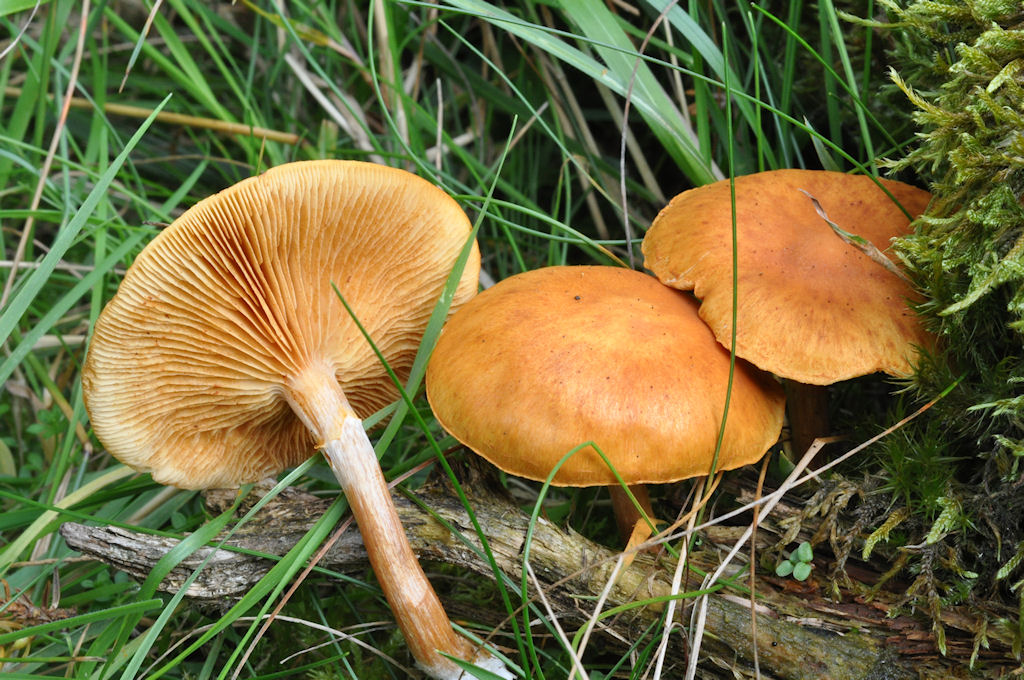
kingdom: Fungi
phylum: Basidiomycota
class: Agaricomycetes
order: Agaricales
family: Hymenogastraceae
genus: Gymnopilus
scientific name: Gymnopilus penetrans
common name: plettet flammehat
